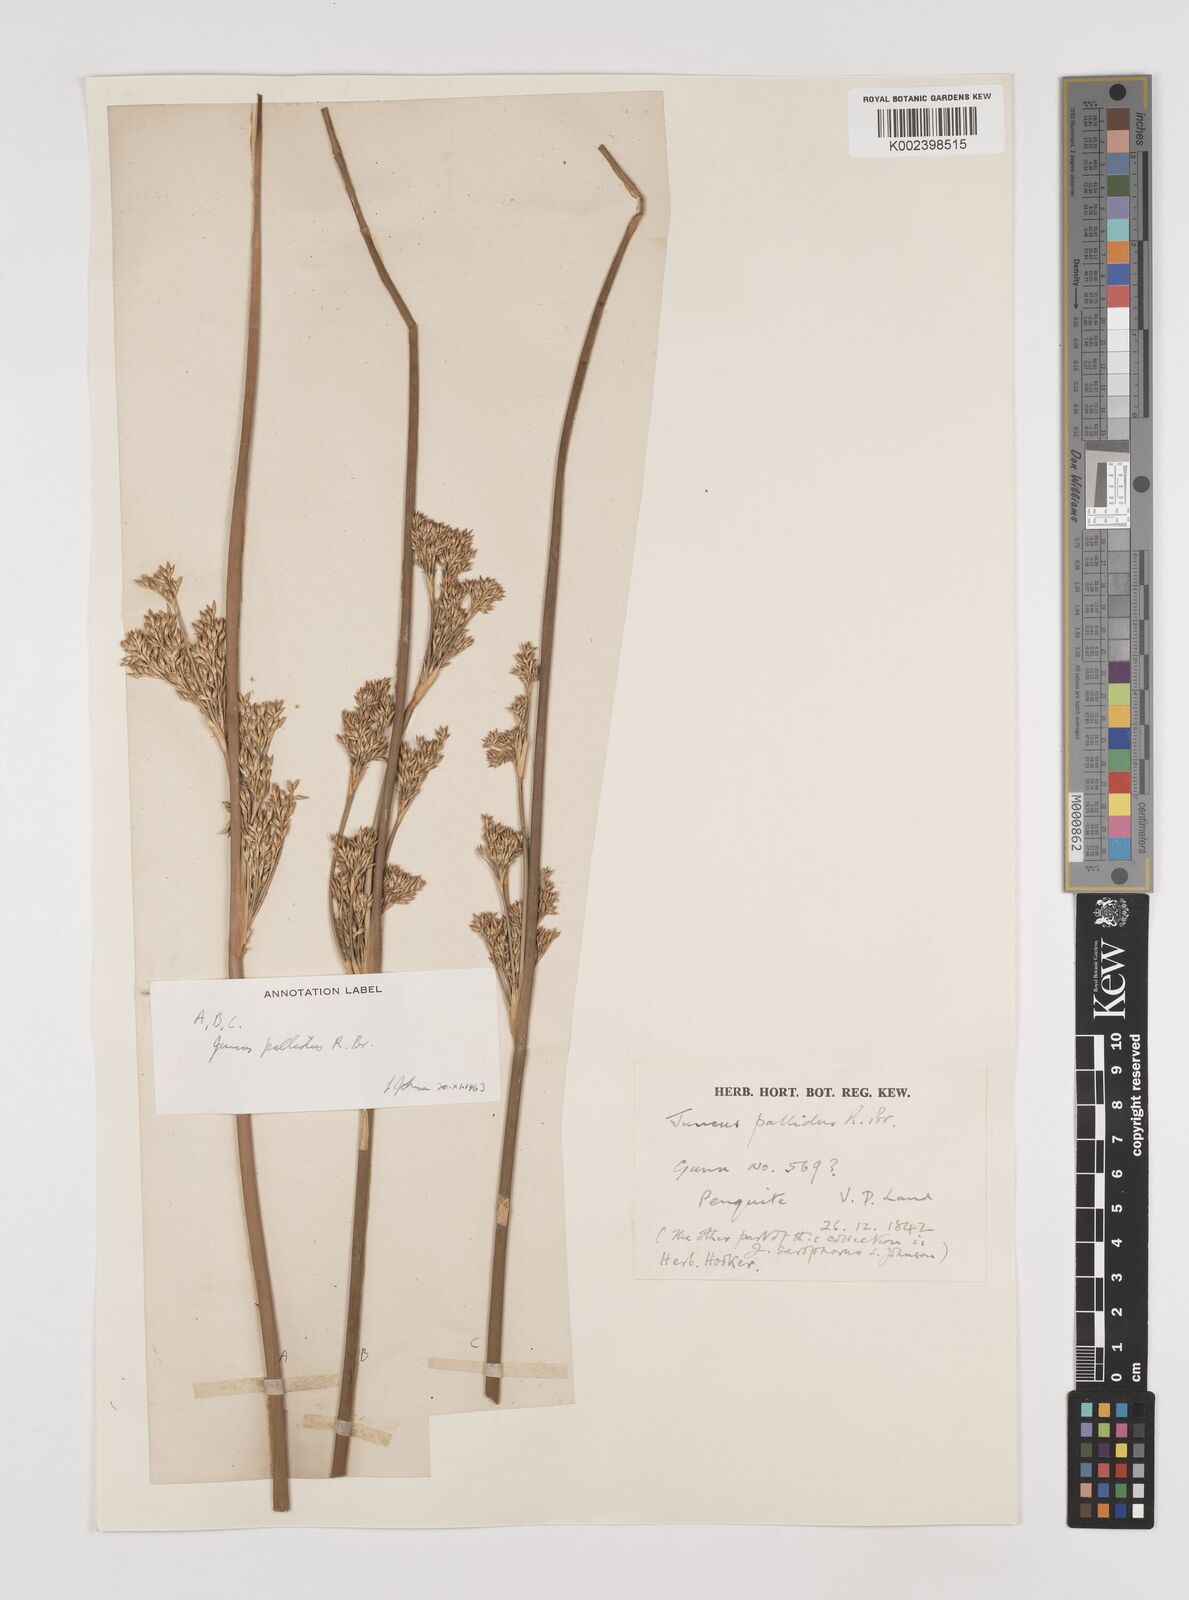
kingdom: Plantae
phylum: Tracheophyta
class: Liliopsida
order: Poales
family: Juncaceae
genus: Juncus
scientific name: Juncus pallidus
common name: Great soft-rush
